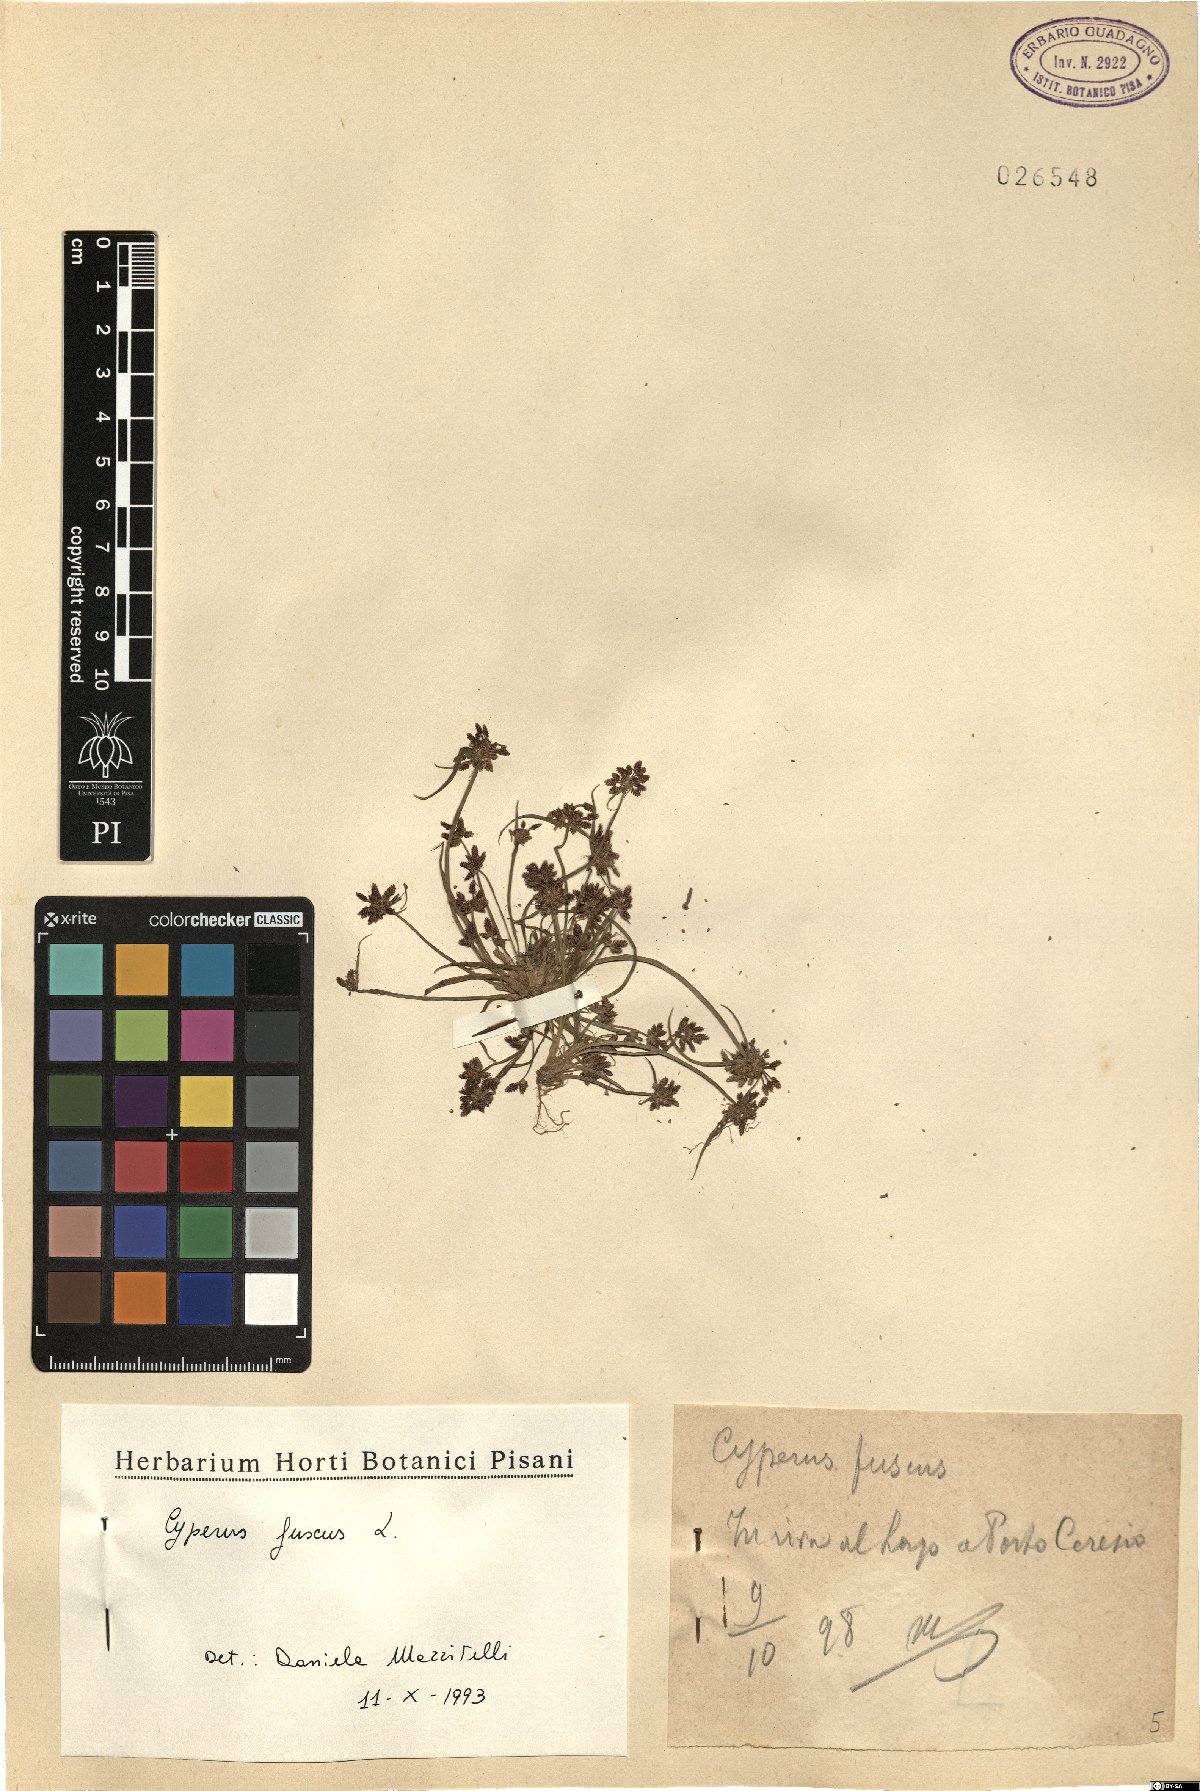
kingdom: Plantae
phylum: Tracheophyta
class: Liliopsida
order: Poales
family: Cyperaceae
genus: Cyperus
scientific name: Cyperus fuscus
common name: Brown galingale
